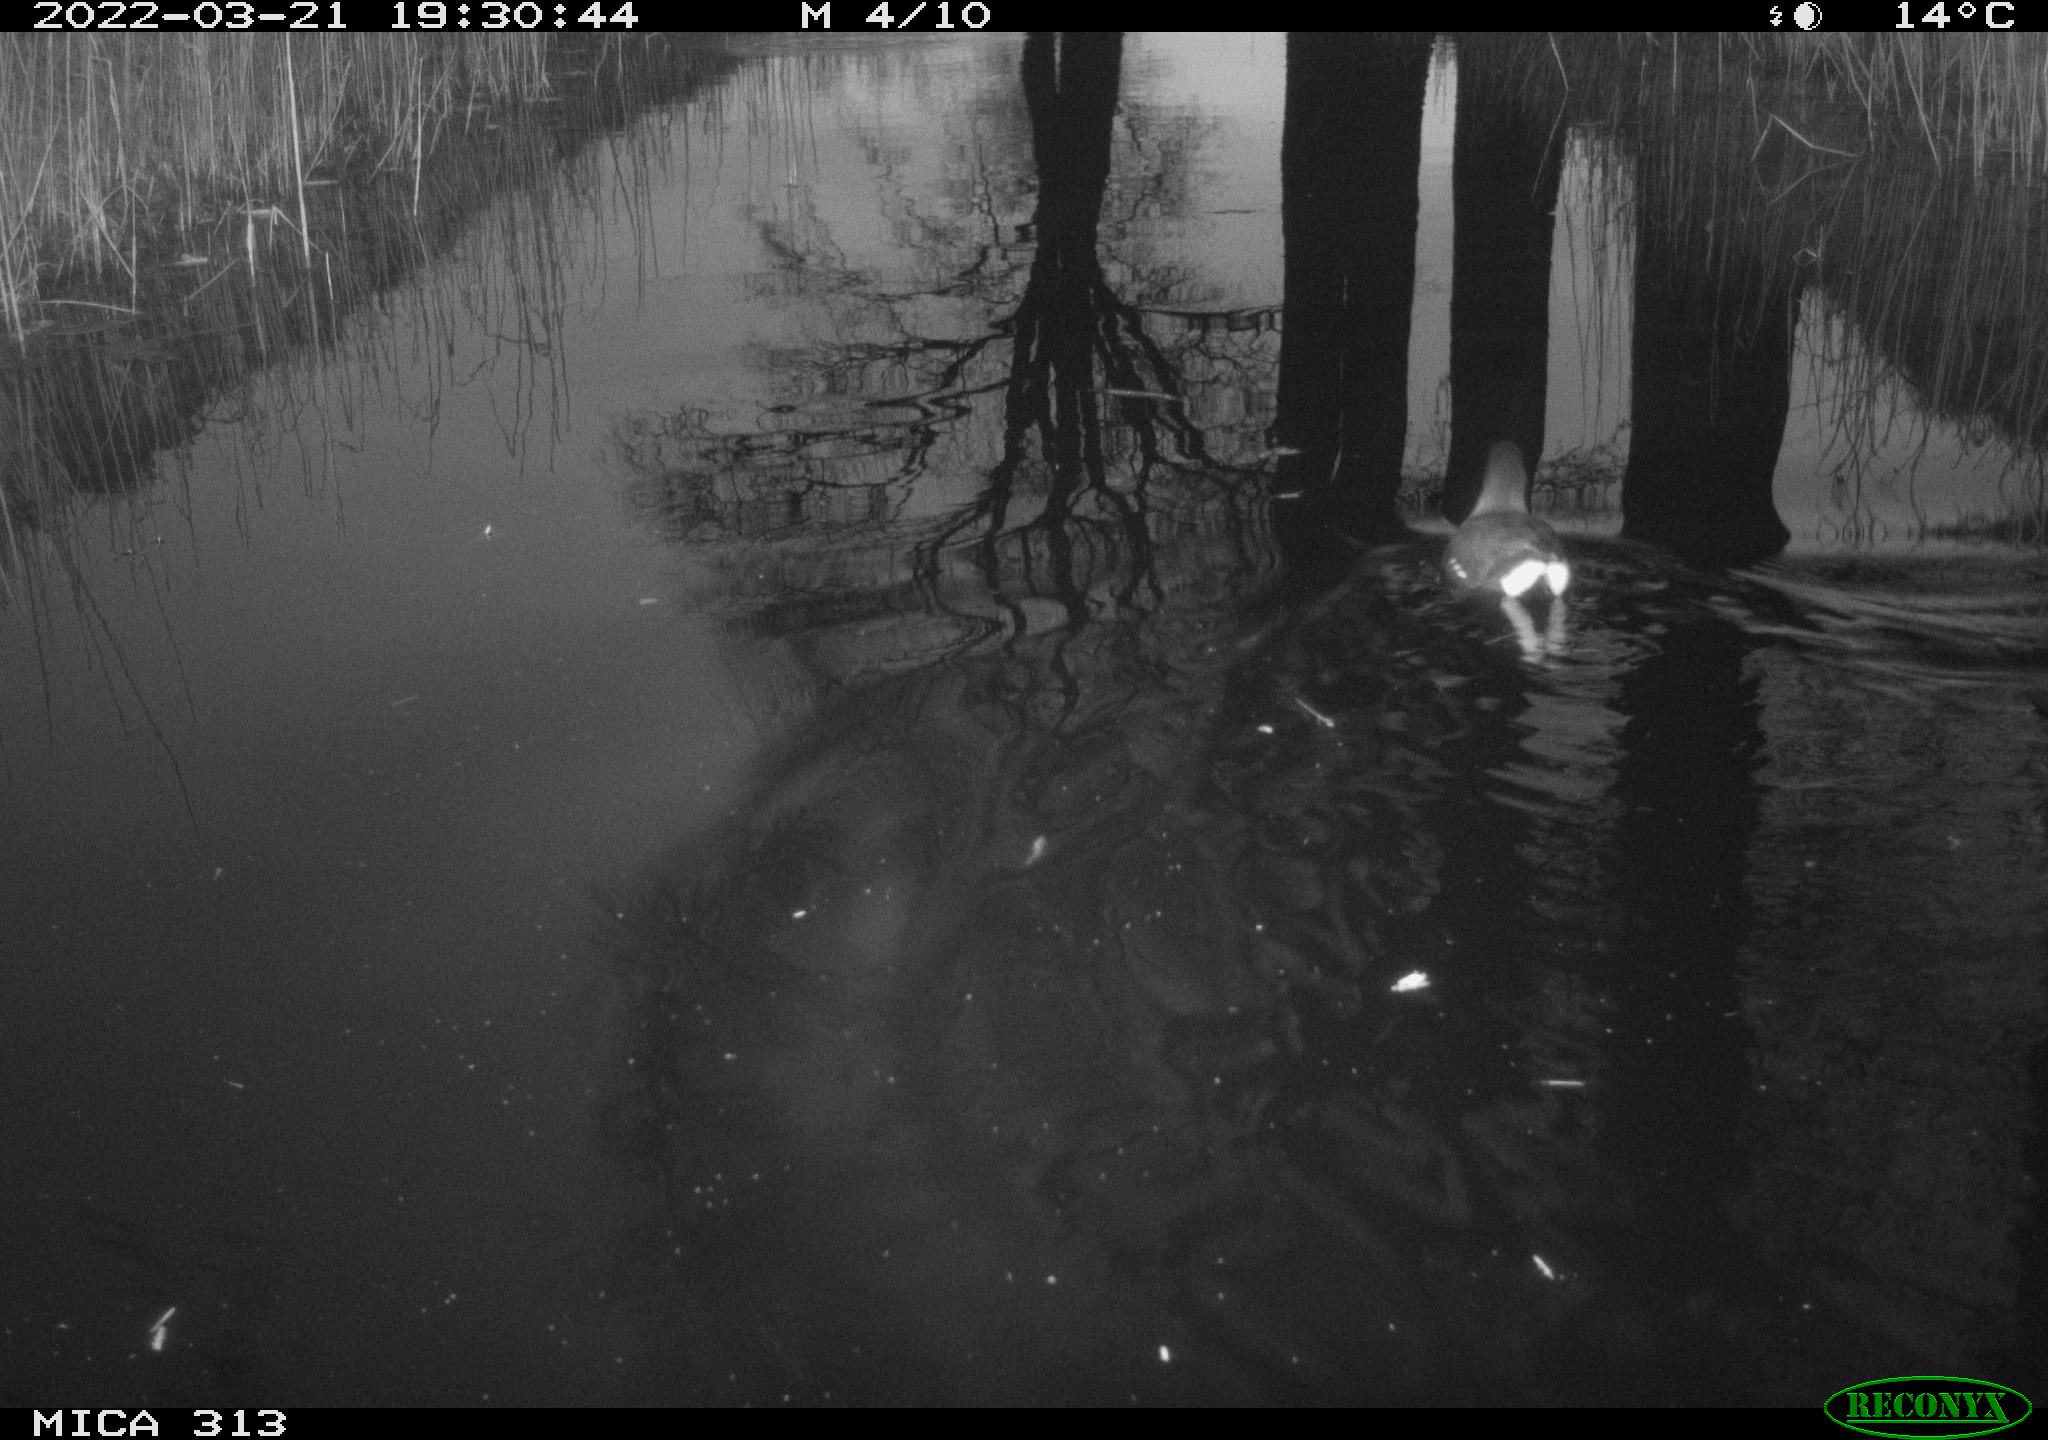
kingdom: Animalia
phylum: Chordata
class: Aves
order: Gruiformes
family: Rallidae
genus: Gallinula
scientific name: Gallinula chloropus
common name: Common moorhen
